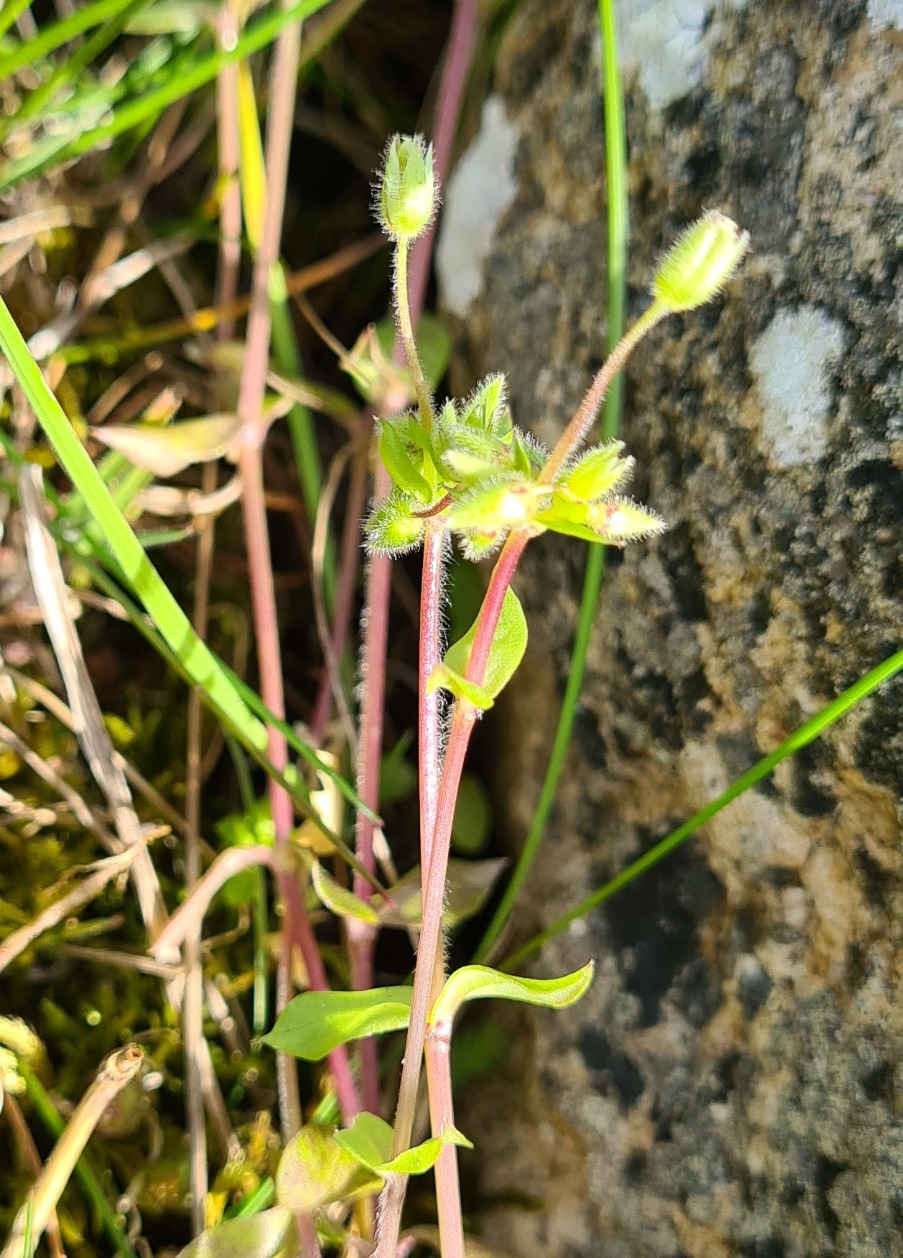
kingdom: Plantae
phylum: Tracheophyta
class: Magnoliopsida
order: Caryophyllales
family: Caryophyllaceae
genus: Stellaria
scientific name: Stellaria apetala
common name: Bleg fuglegræs
